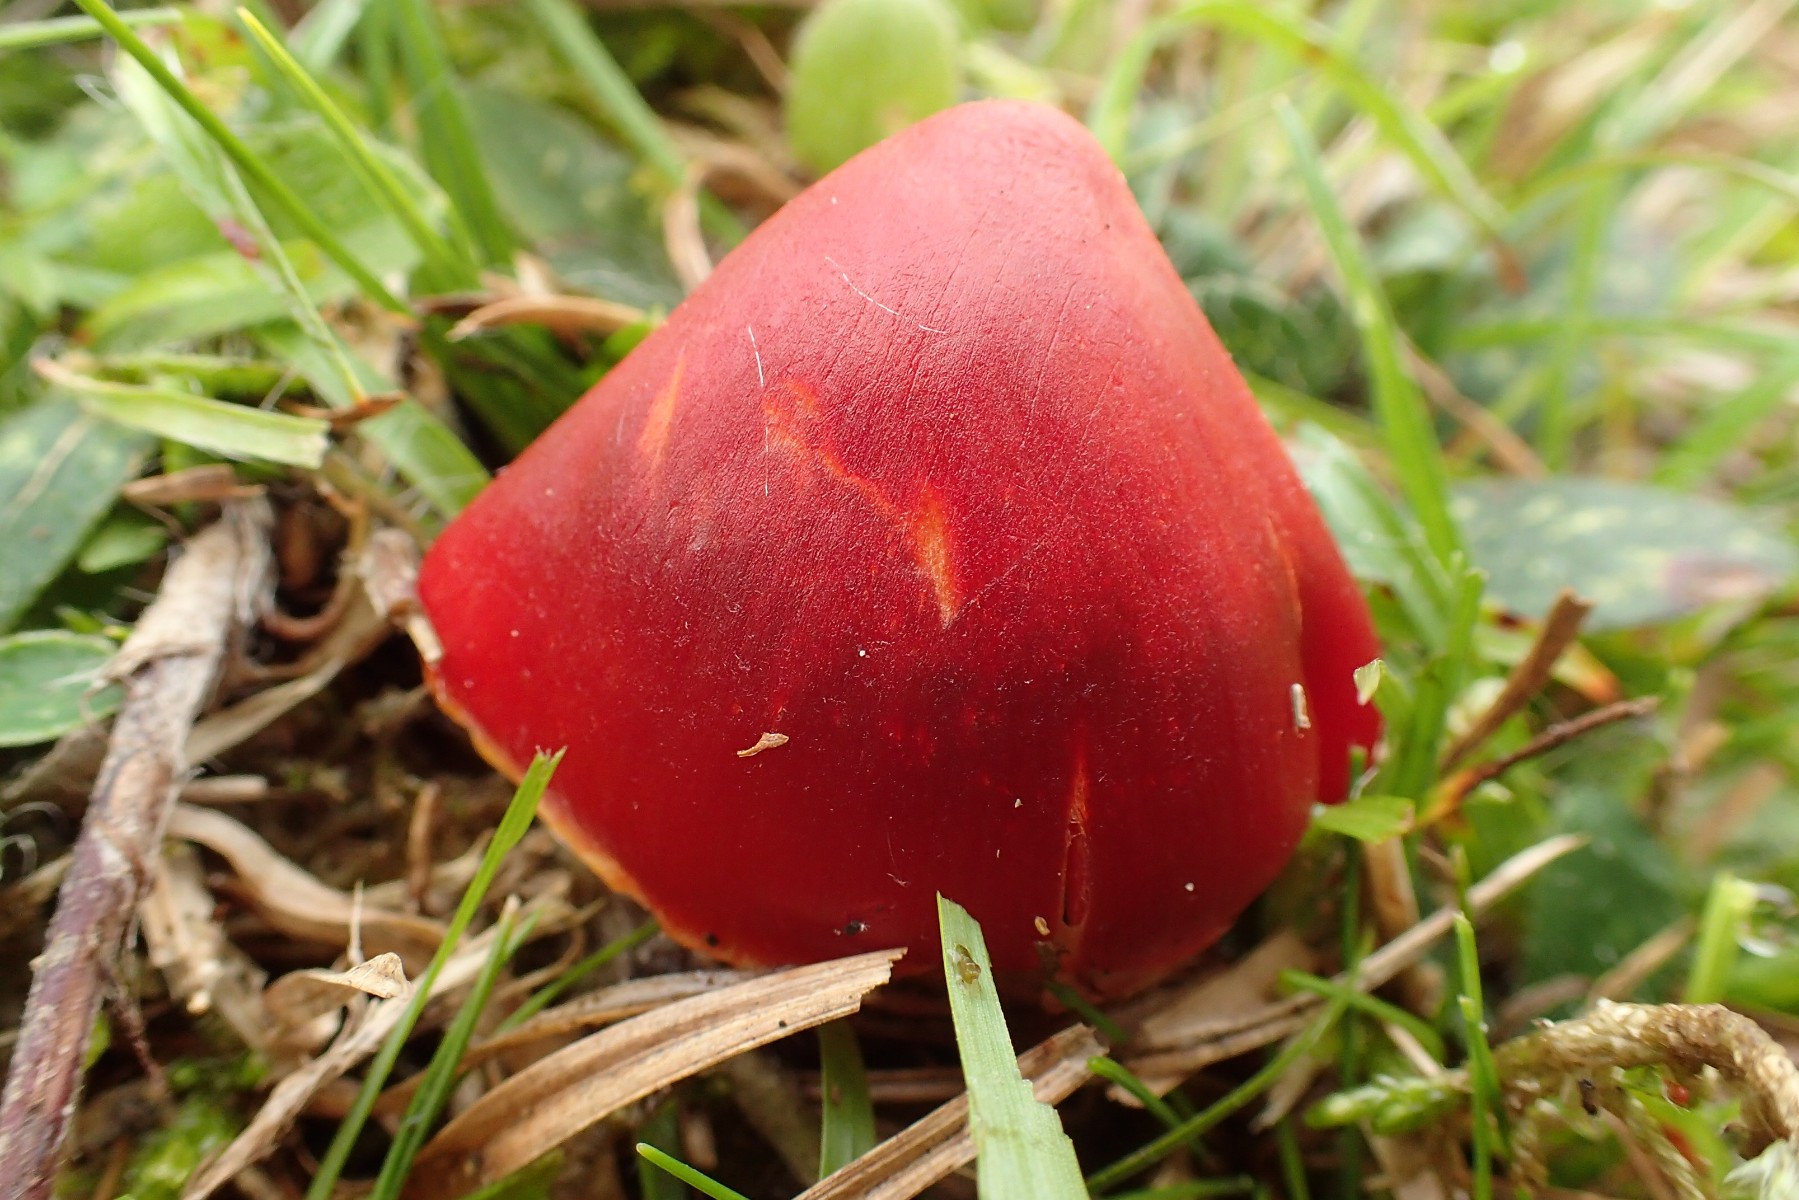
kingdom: Fungi
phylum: Basidiomycota
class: Agaricomycetes
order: Agaricales
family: Hygrophoraceae
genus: Hygrocybe
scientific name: Hygrocybe punicea
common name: skarlagen-vokshat
